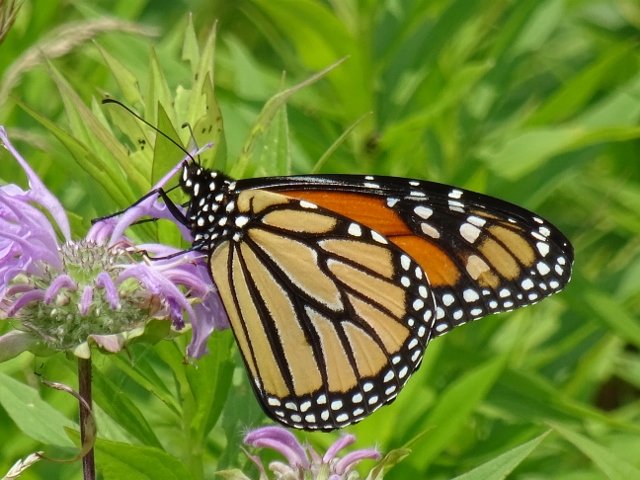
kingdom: Animalia
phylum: Arthropoda
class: Insecta
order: Lepidoptera
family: Nymphalidae
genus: Danaus
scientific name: Danaus plexippus
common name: Monarch
